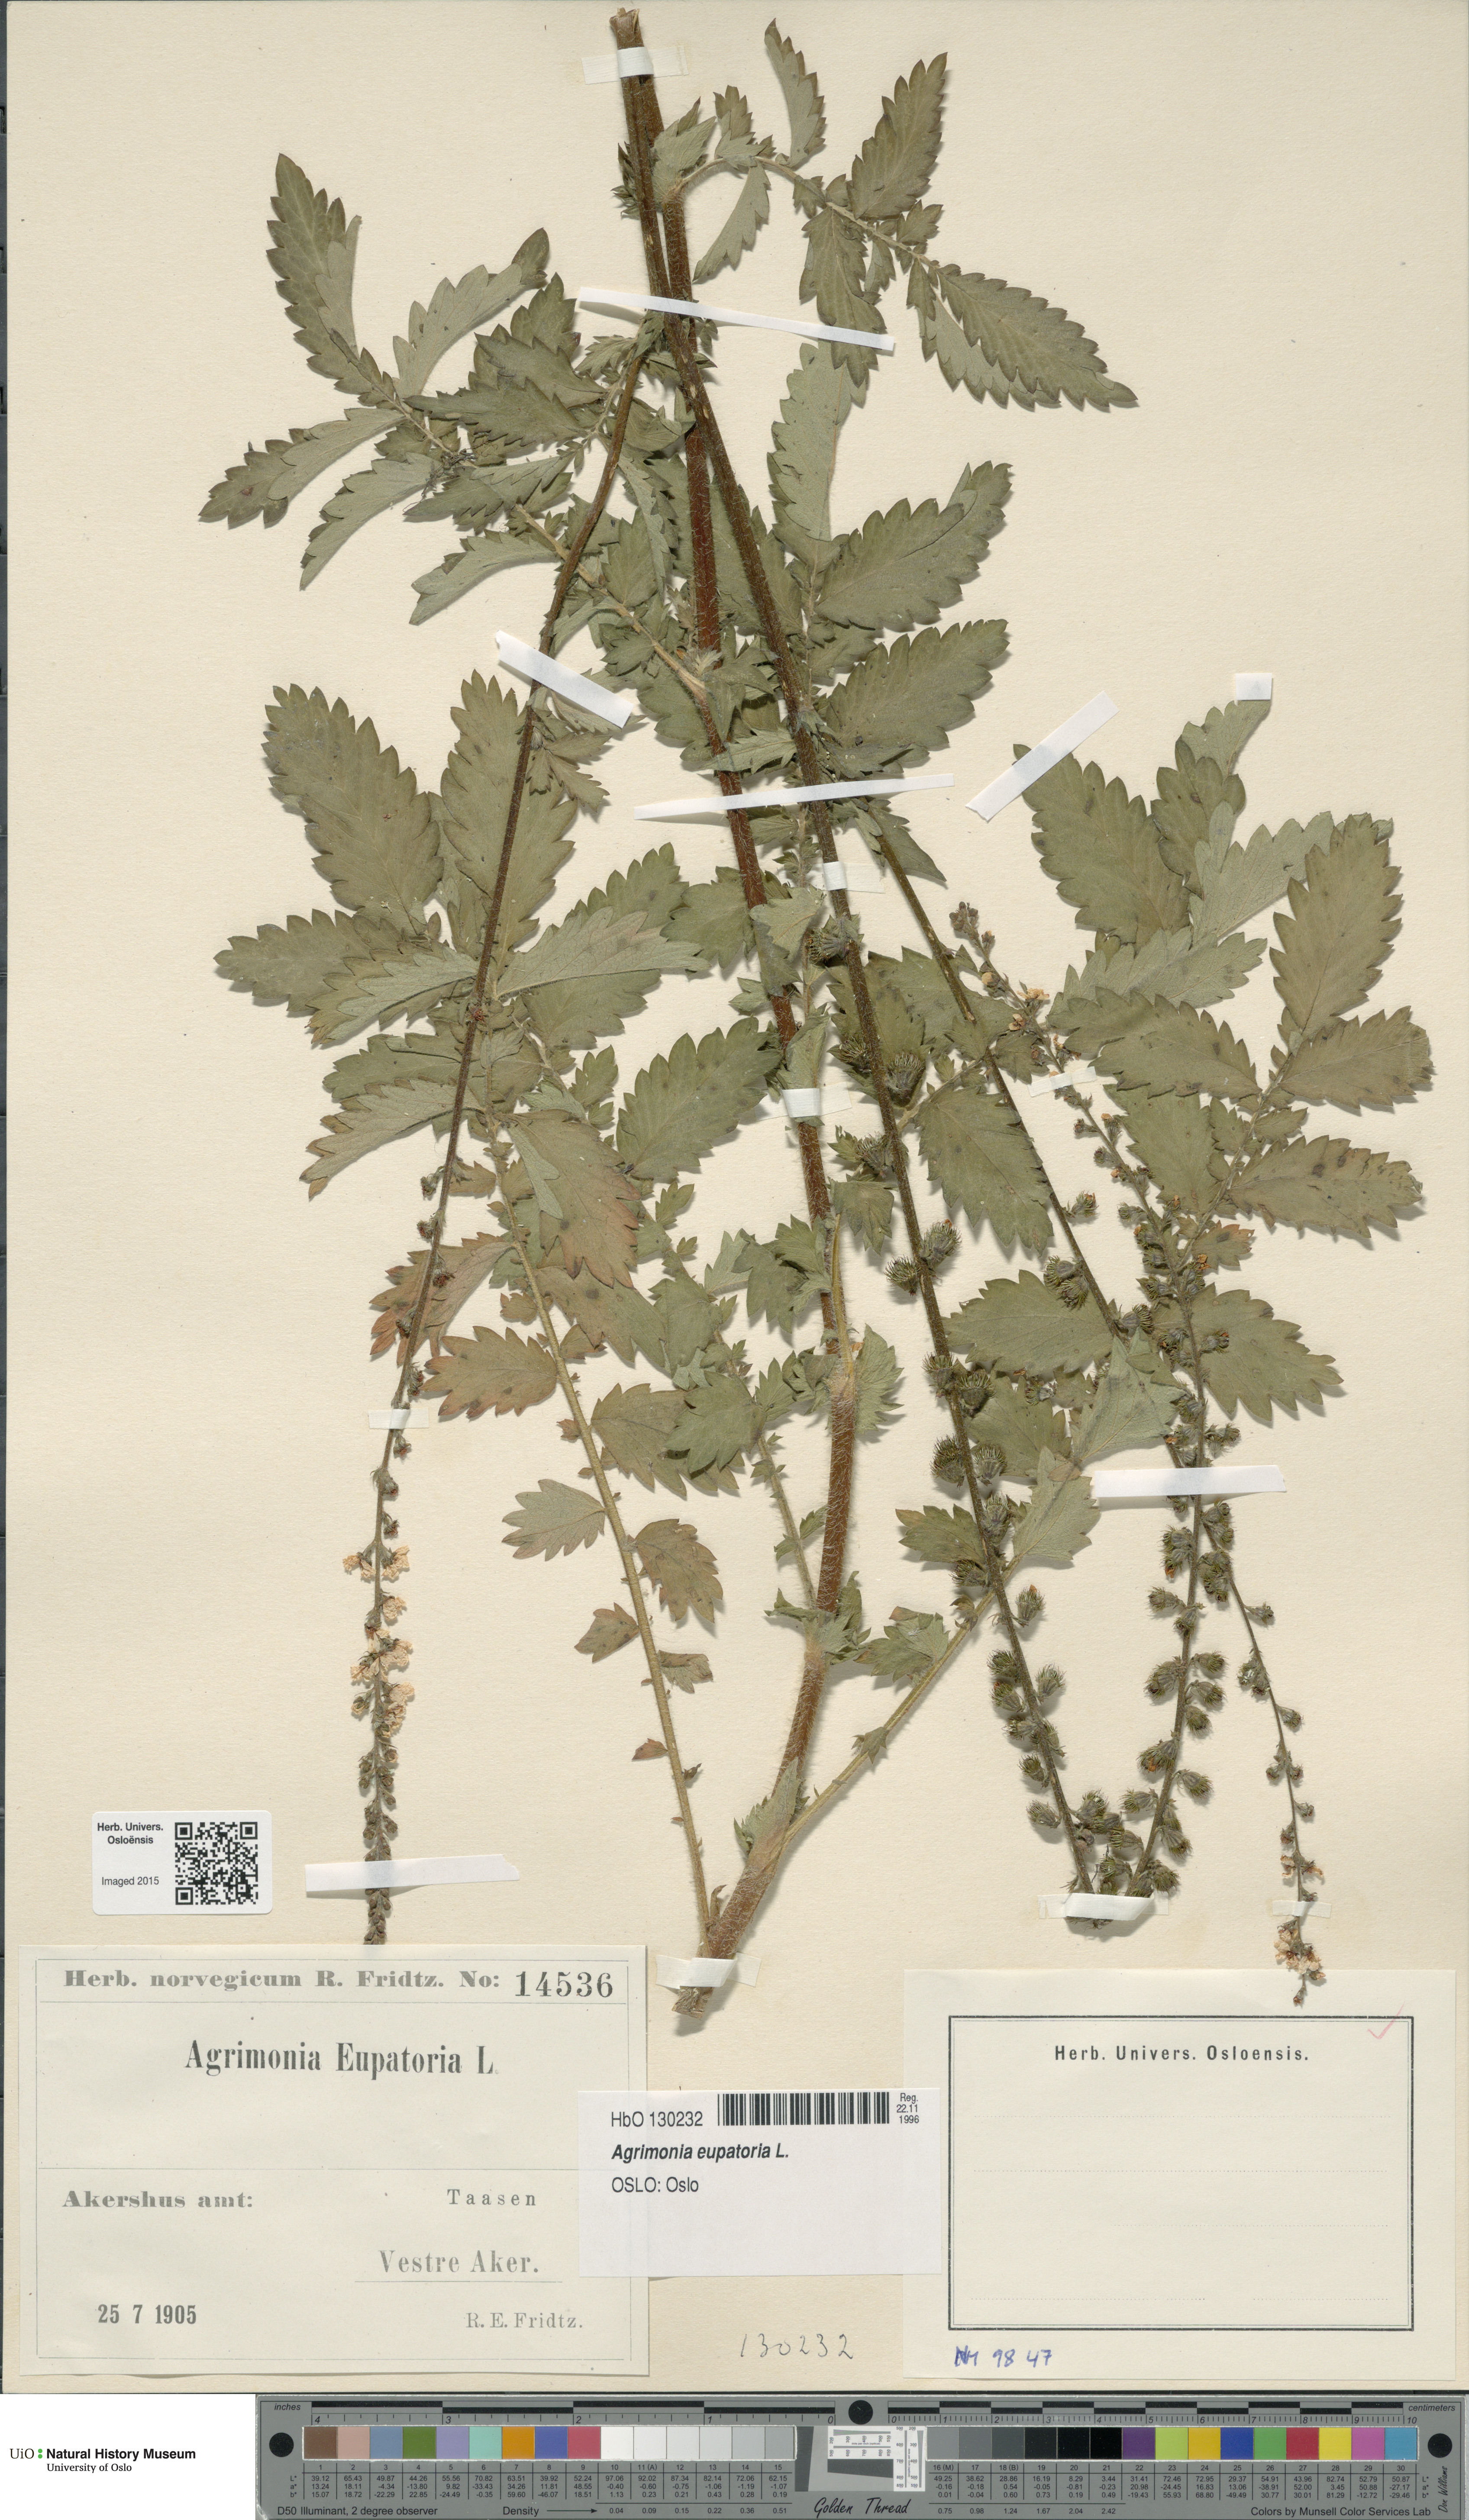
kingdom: Plantae
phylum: Tracheophyta
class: Magnoliopsida
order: Rosales
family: Rosaceae
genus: Agrimonia
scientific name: Agrimonia eupatoria
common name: Agrimony
